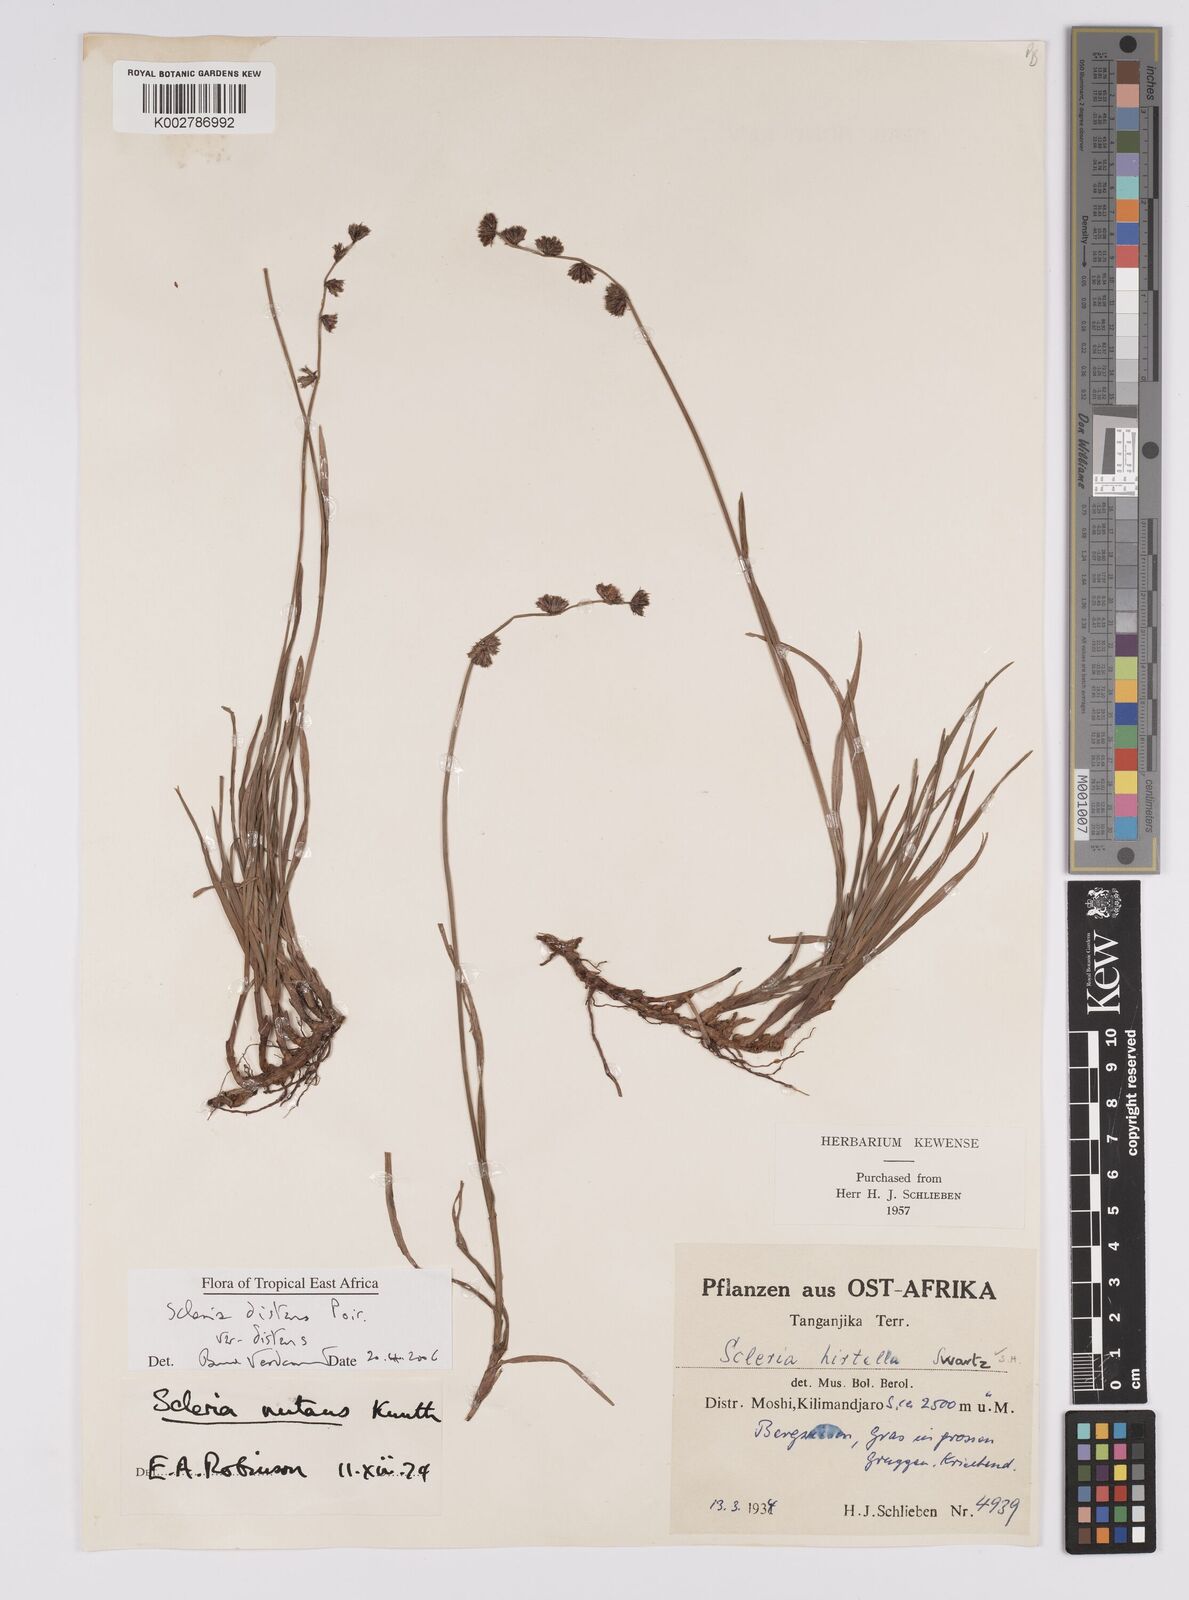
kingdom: Plantae
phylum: Tracheophyta
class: Liliopsida
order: Poales
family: Cyperaceae
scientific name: Cyperaceae
